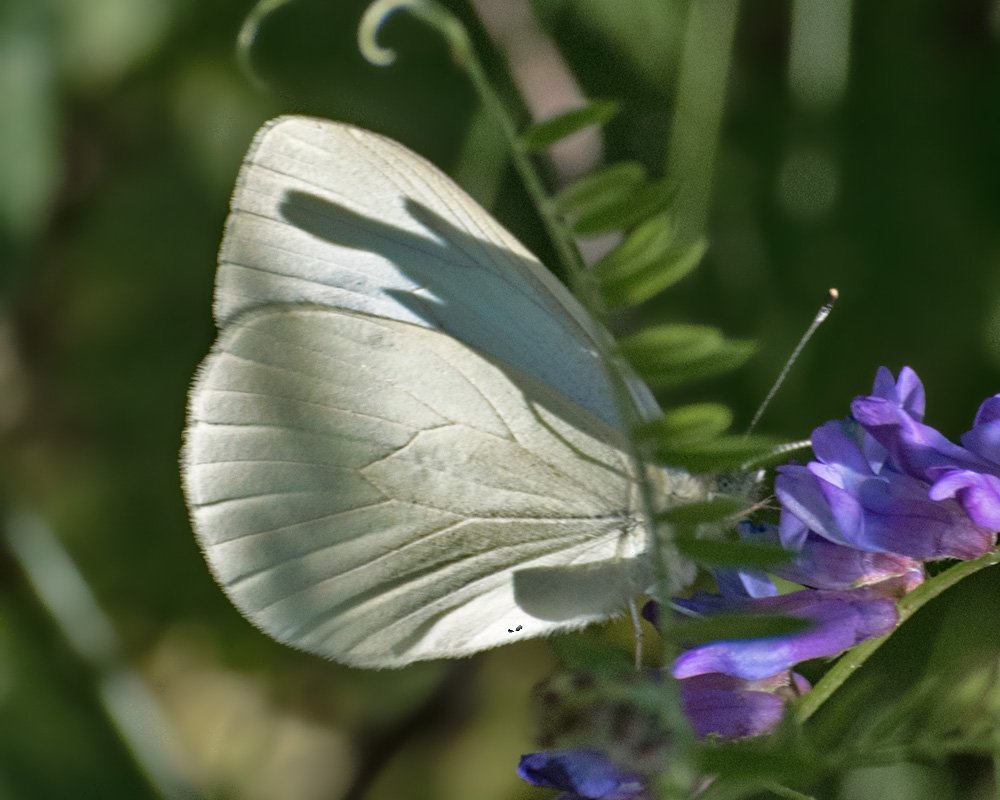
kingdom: Animalia
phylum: Arthropoda
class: Insecta
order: Lepidoptera
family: Pieridae
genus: Pieris
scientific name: Pieris marginalis
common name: Margined White
